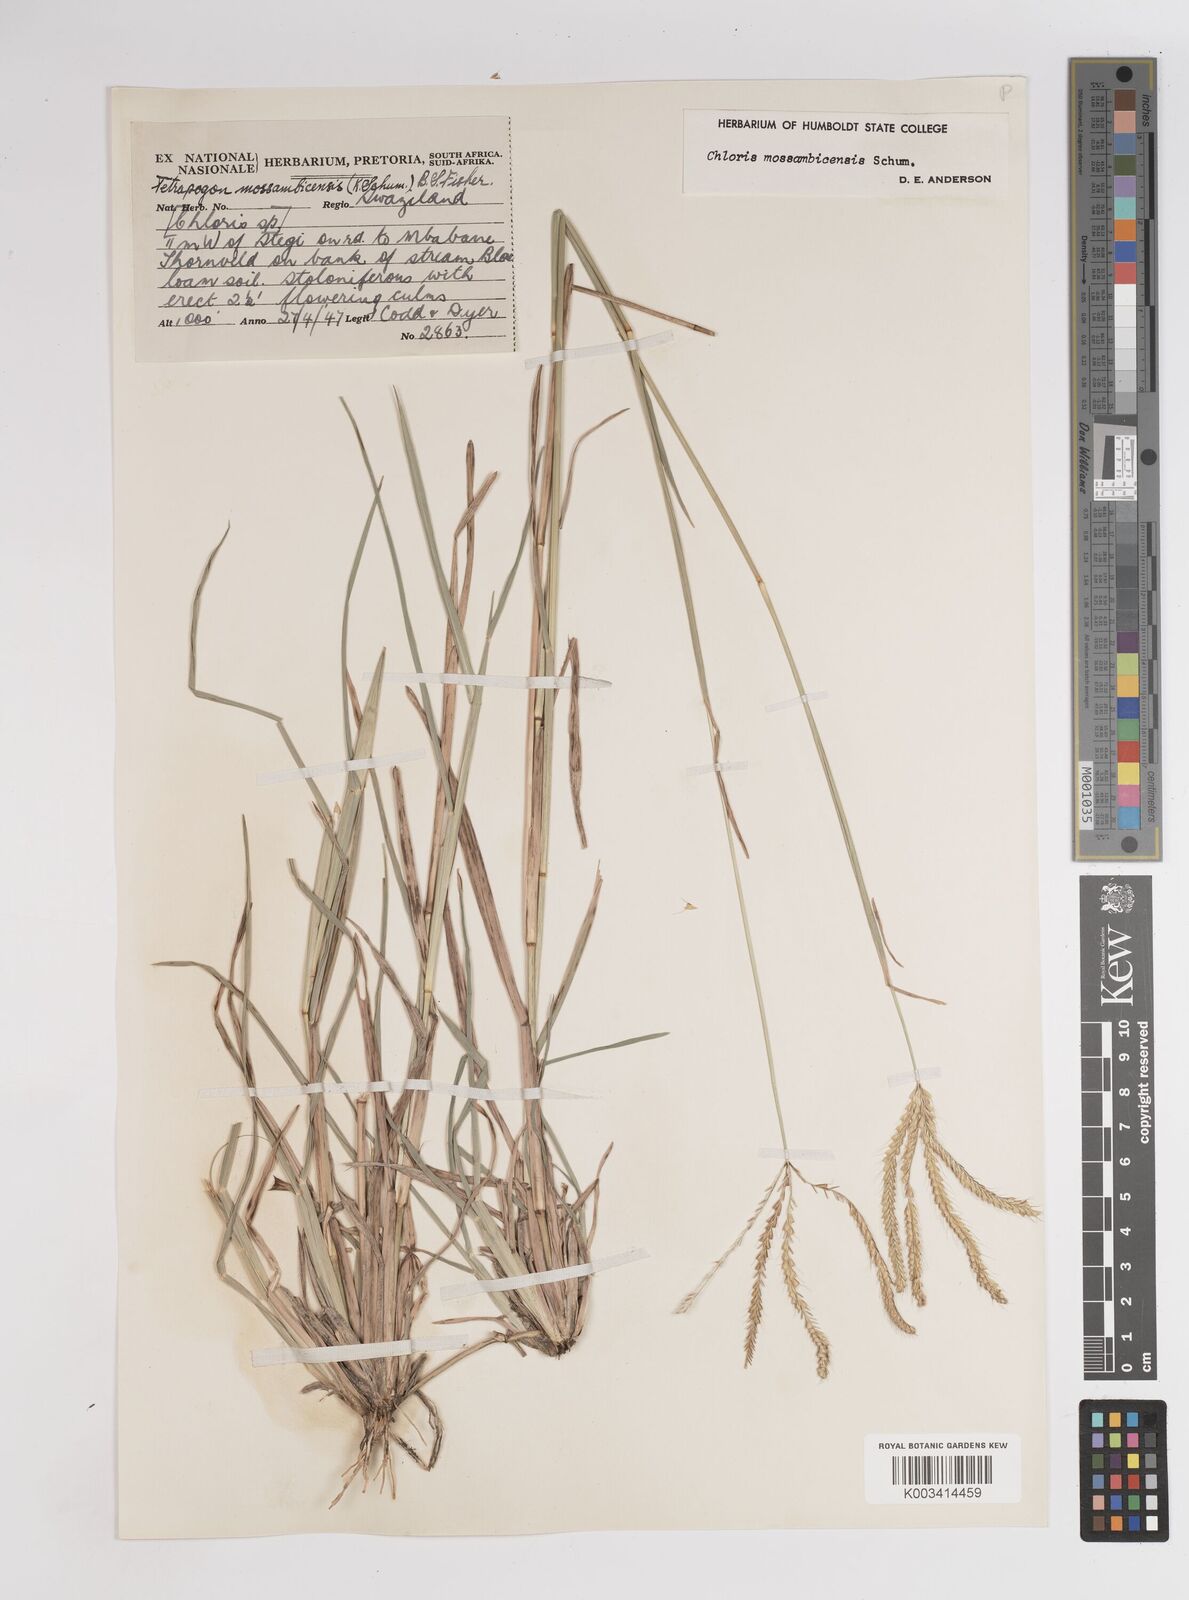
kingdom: Plantae
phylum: Tracheophyta
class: Liliopsida
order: Poales
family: Poaceae
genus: Chloris
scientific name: Chloris mossambicensis
